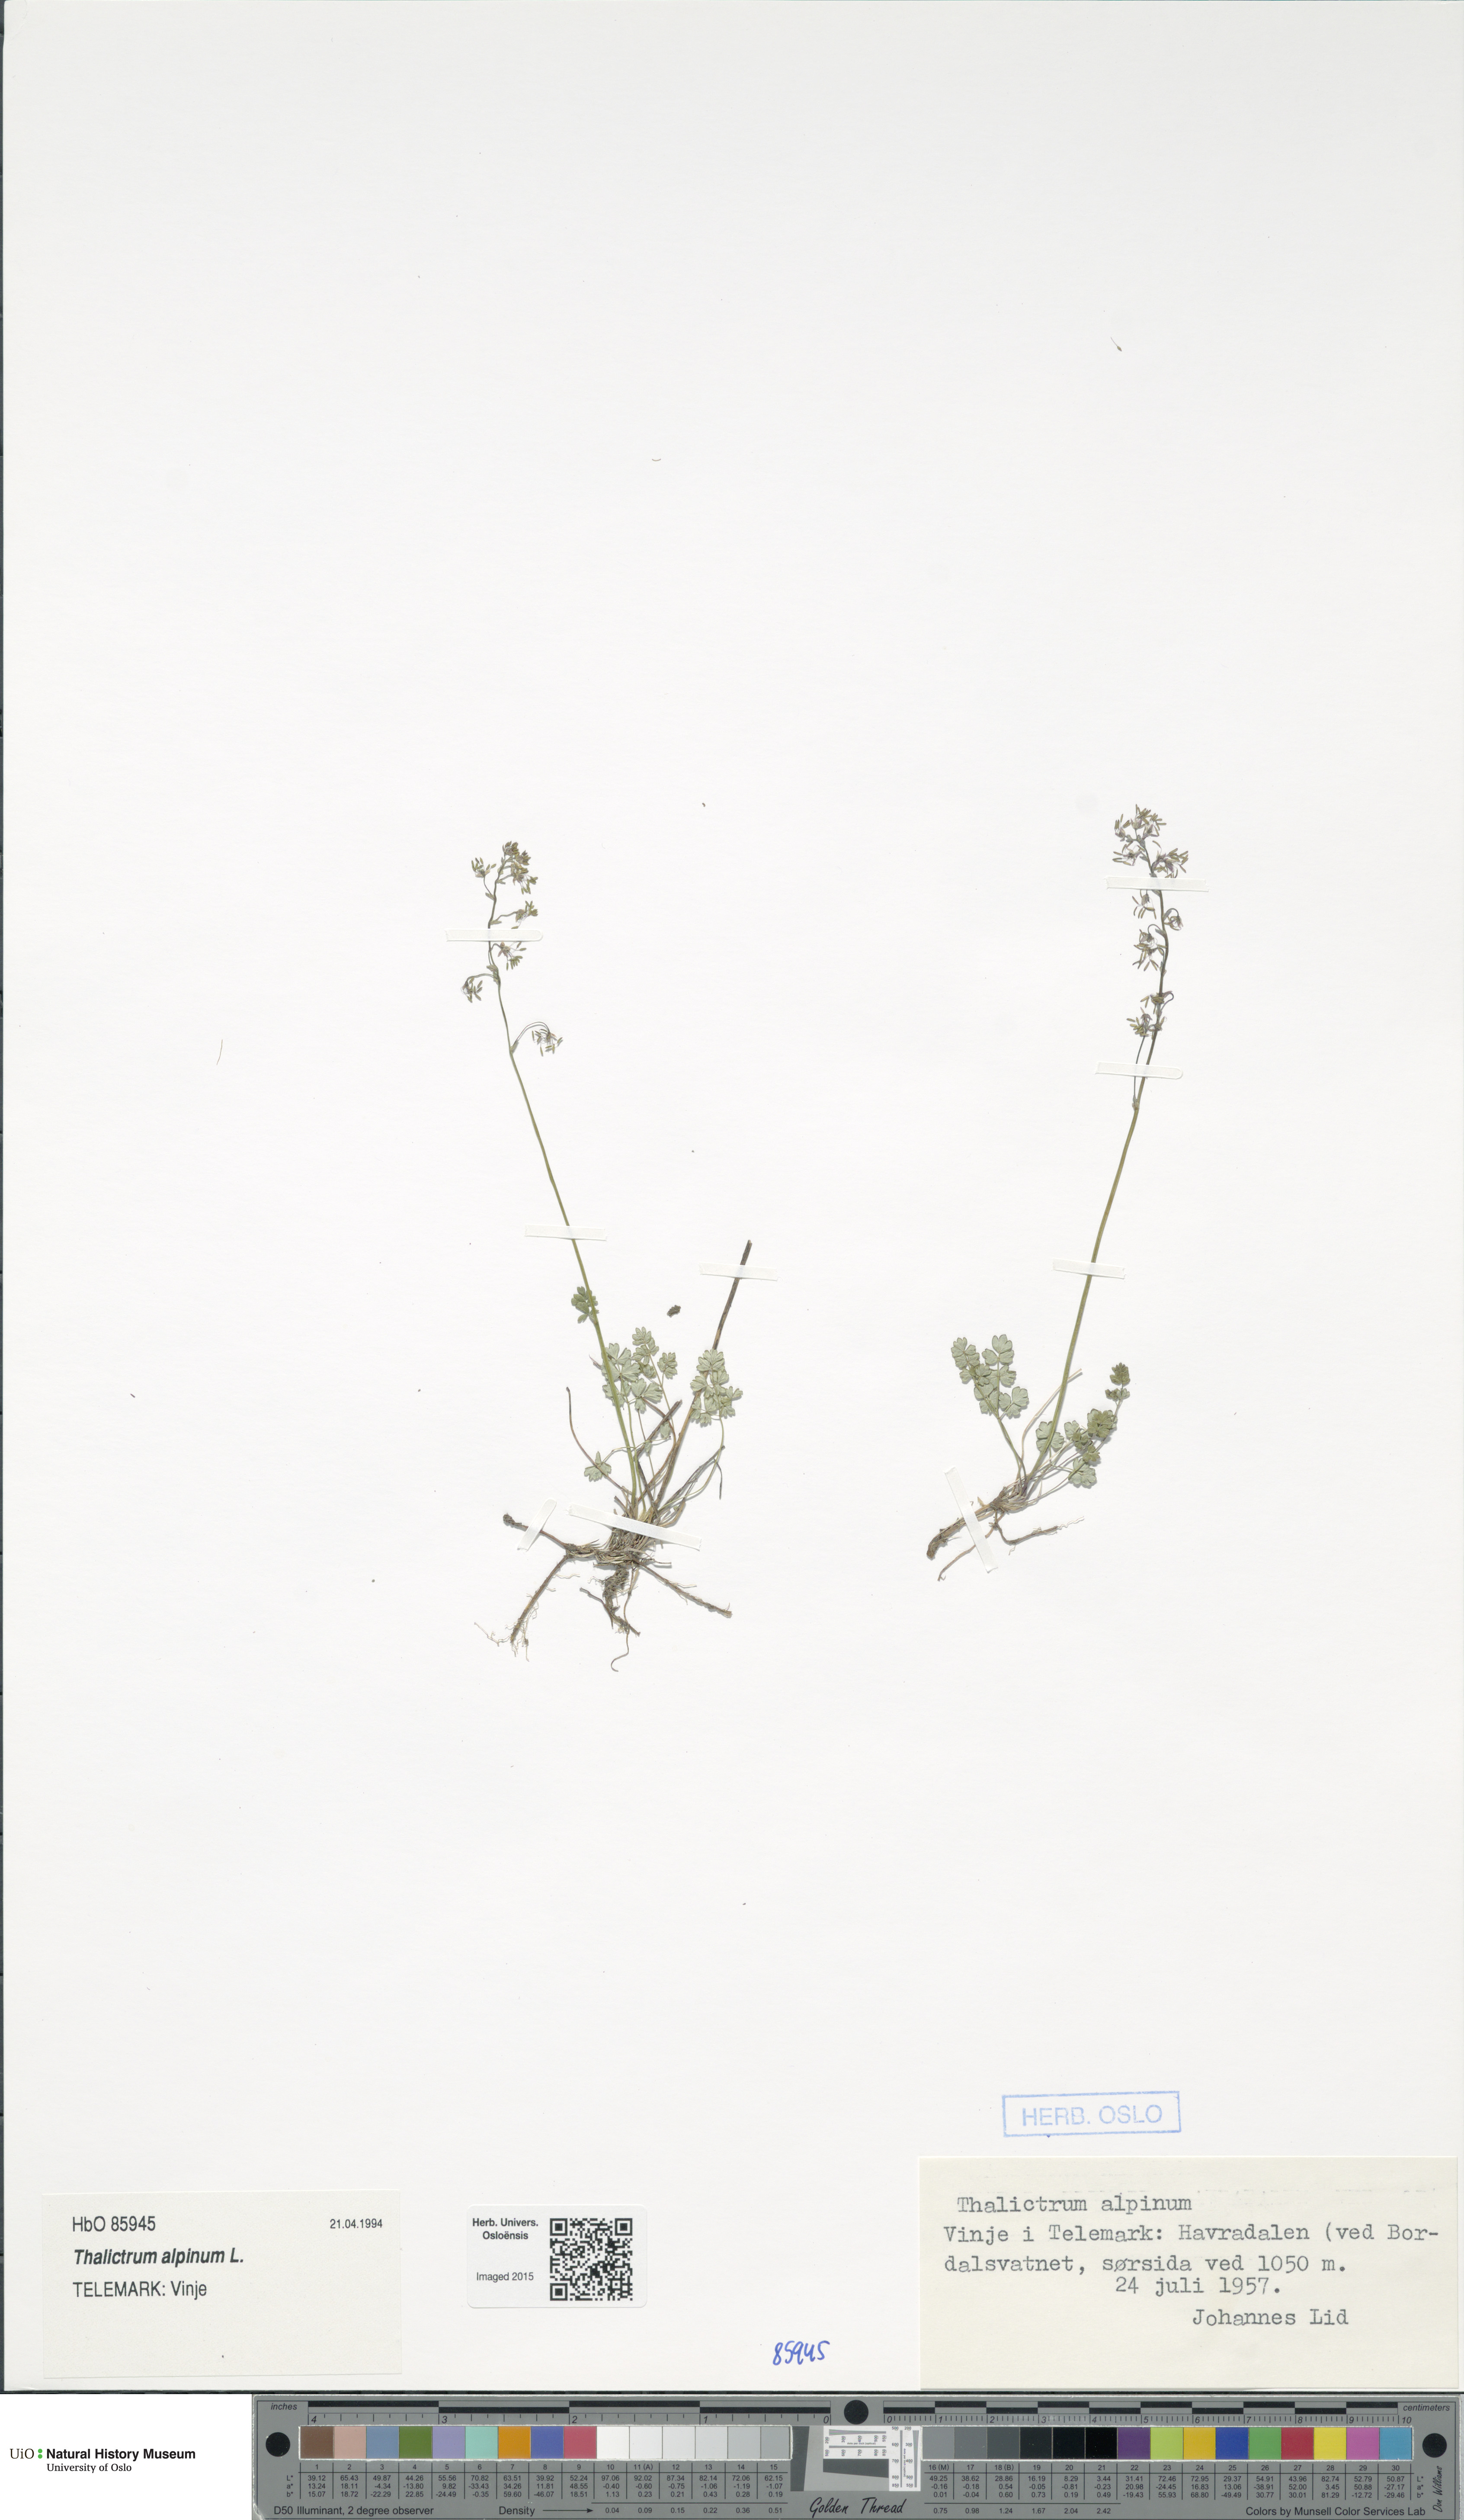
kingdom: Plantae
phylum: Tracheophyta
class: Magnoliopsida
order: Ranunculales
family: Ranunculaceae
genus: Thalictrum
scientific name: Thalictrum alpinum
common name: Alpine meadow-rue
